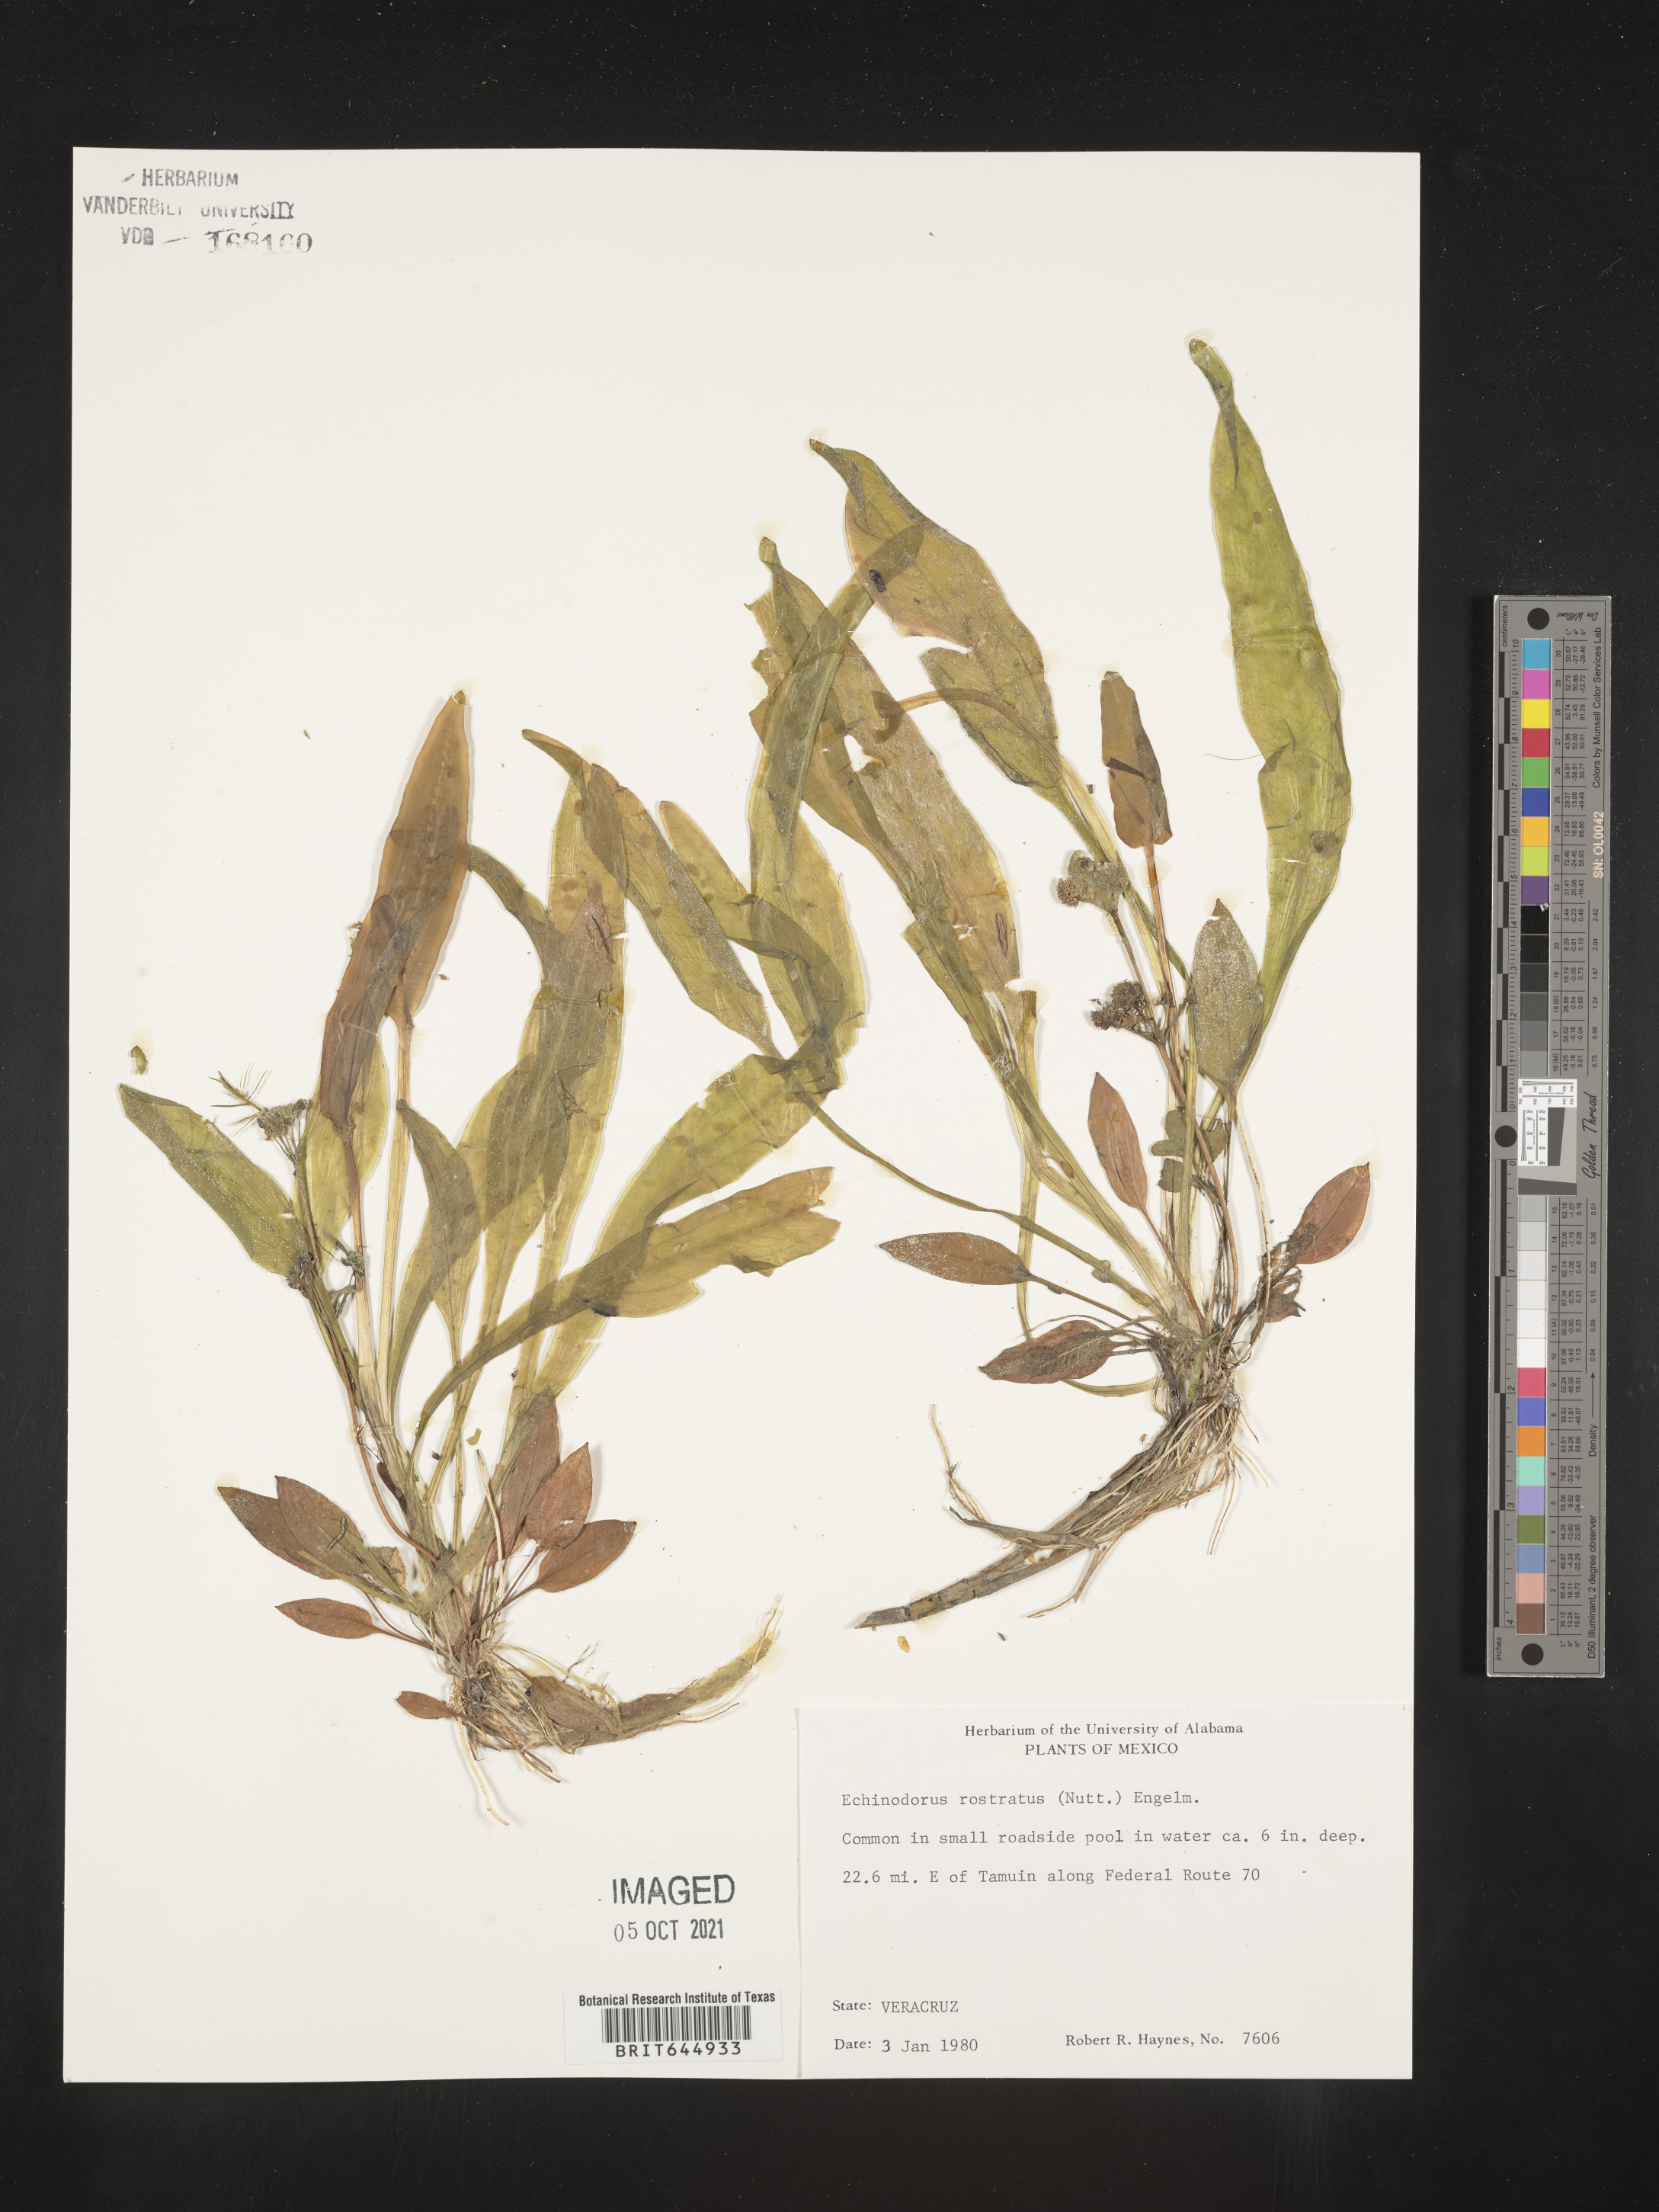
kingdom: Plantae
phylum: Tracheophyta
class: Liliopsida
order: Alismatales
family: Alismataceae
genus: Echinodorus
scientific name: Echinodorus
